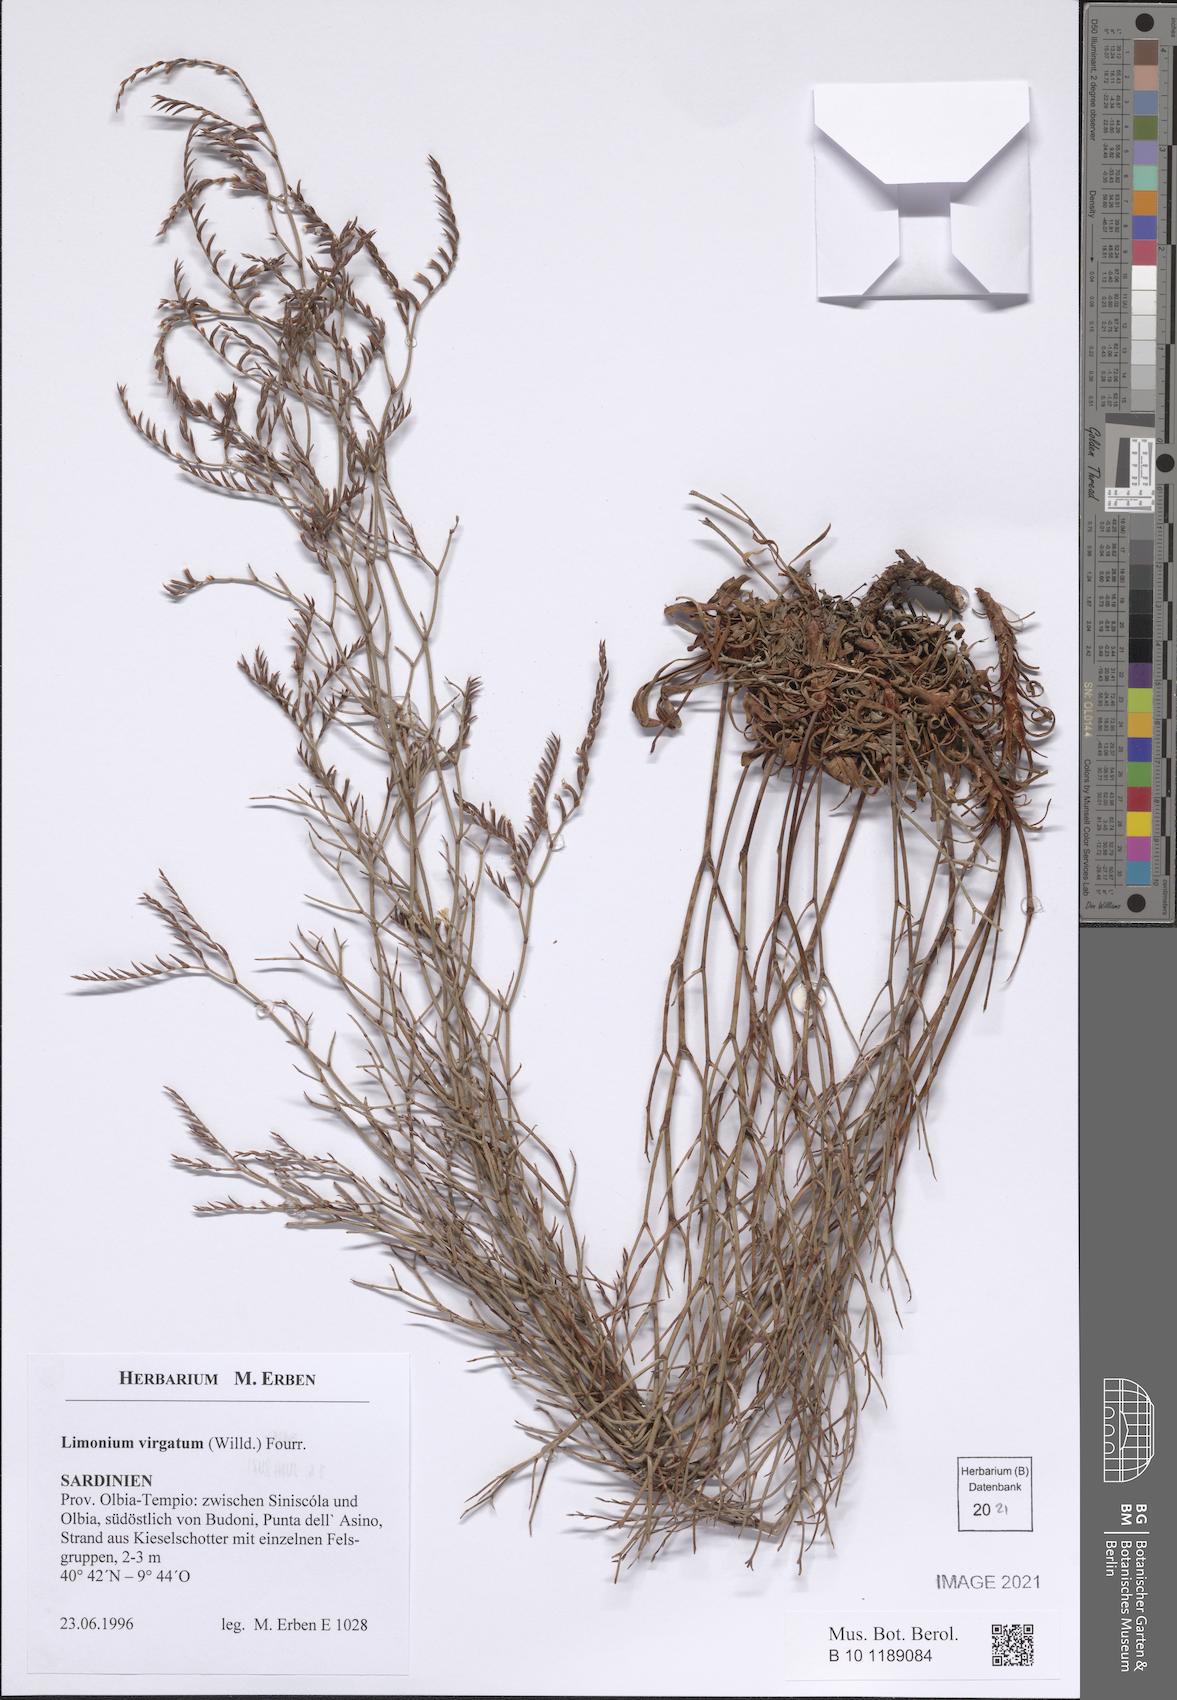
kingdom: Plantae
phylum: Tracheophyta
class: Magnoliopsida
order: Caryophyllales
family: Plumbaginaceae
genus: Limonium
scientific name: Limonium virgatum
